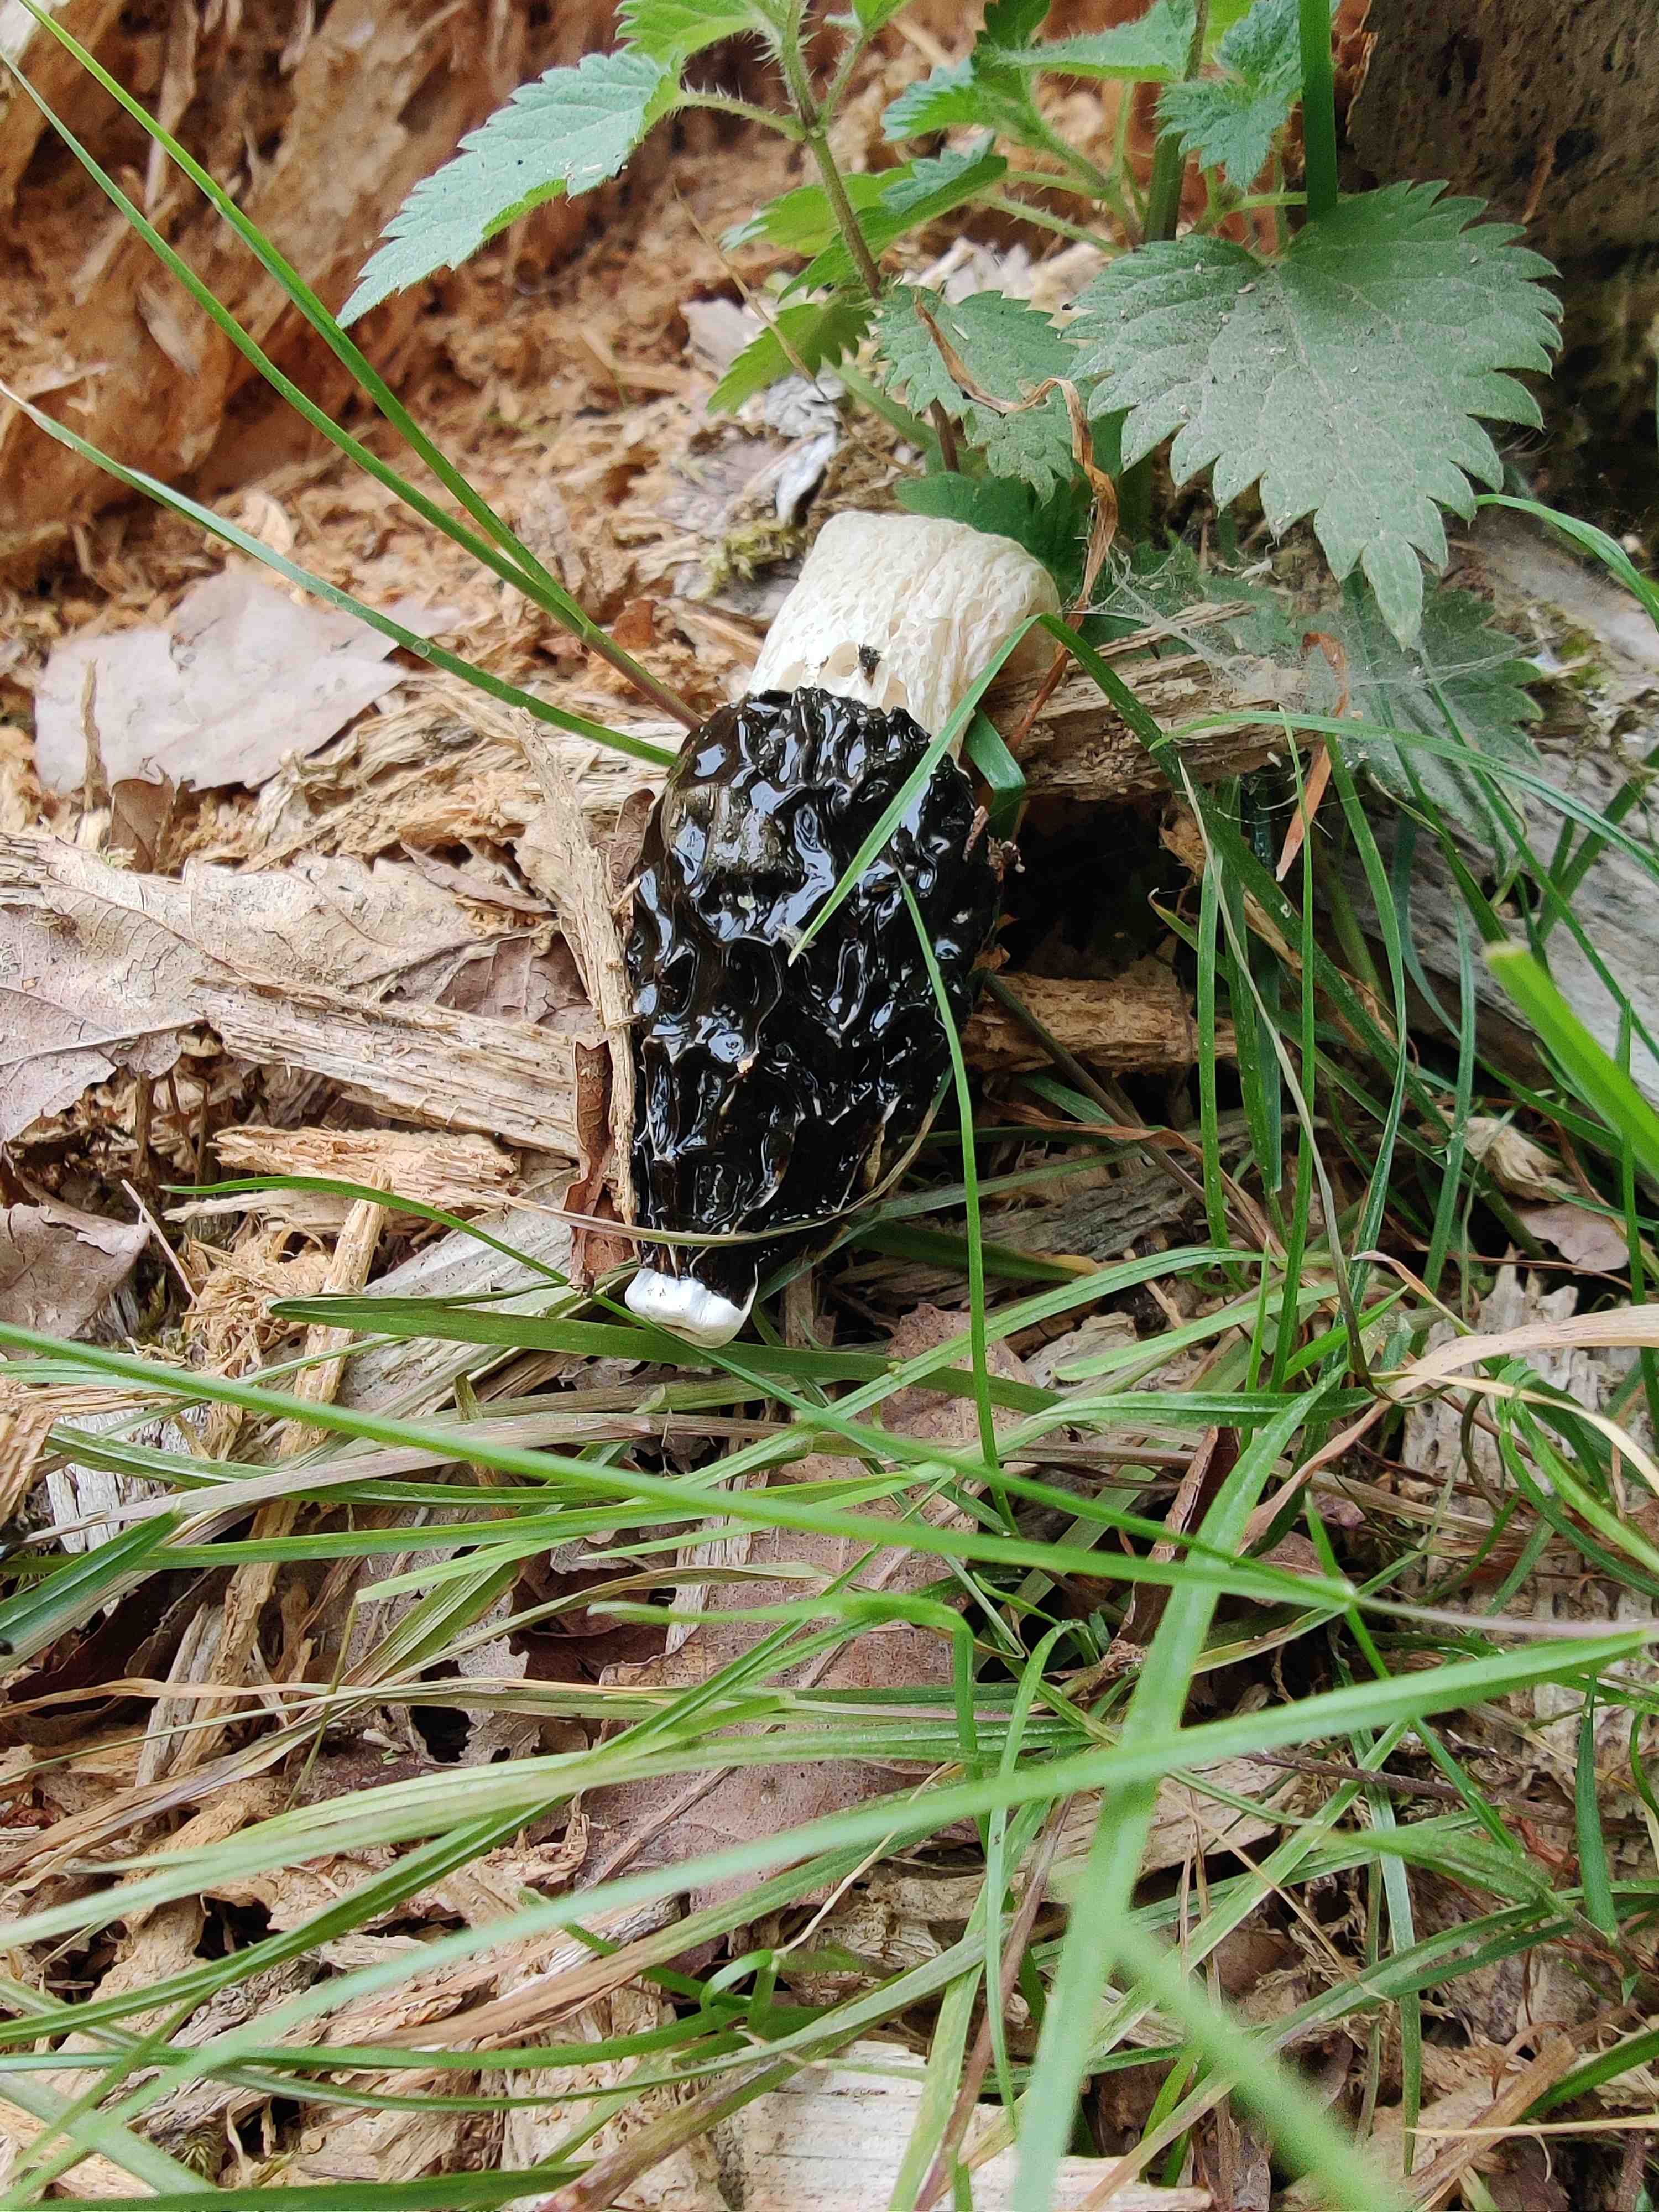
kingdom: Fungi
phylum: Basidiomycota
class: Agaricomycetes
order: Phallales
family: Phallaceae
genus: Phallus
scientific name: Phallus impudicus
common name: almindelig stinksvamp
